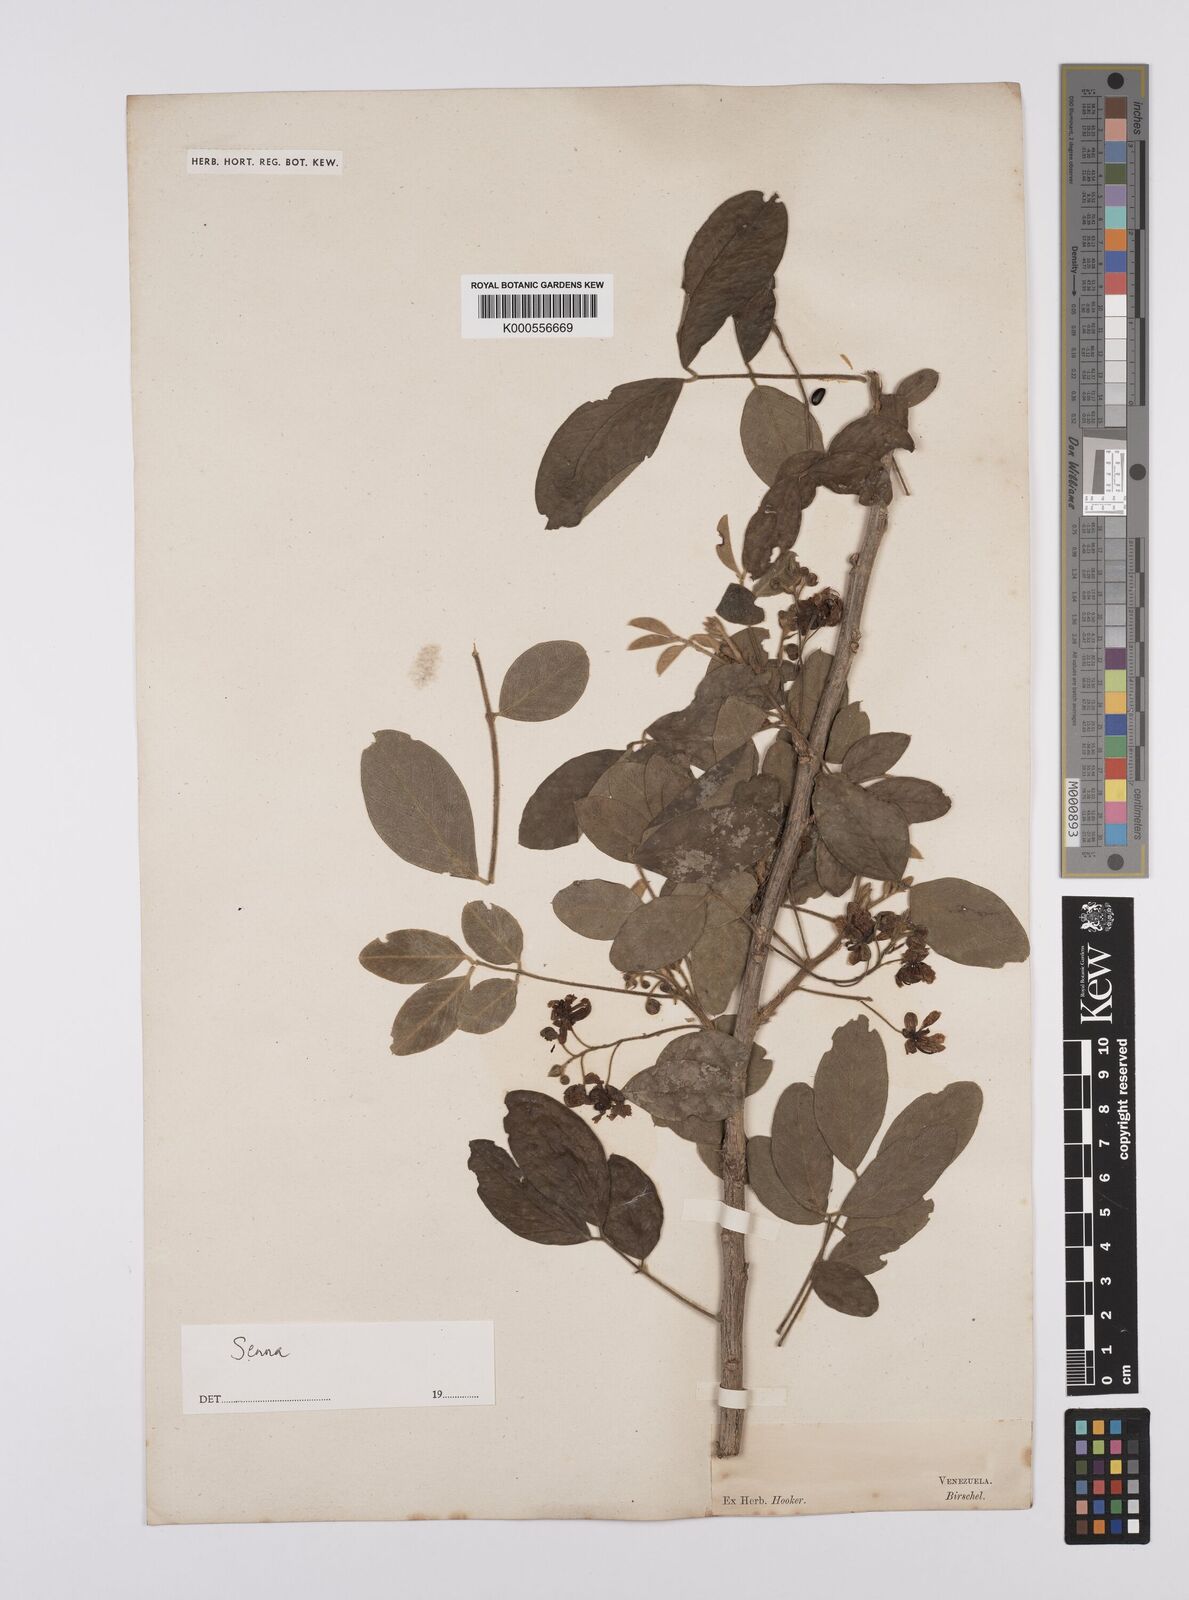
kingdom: Plantae
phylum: Tracheophyta
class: Magnoliopsida
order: Fabales
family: Fabaceae
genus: Senna
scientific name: Senna
